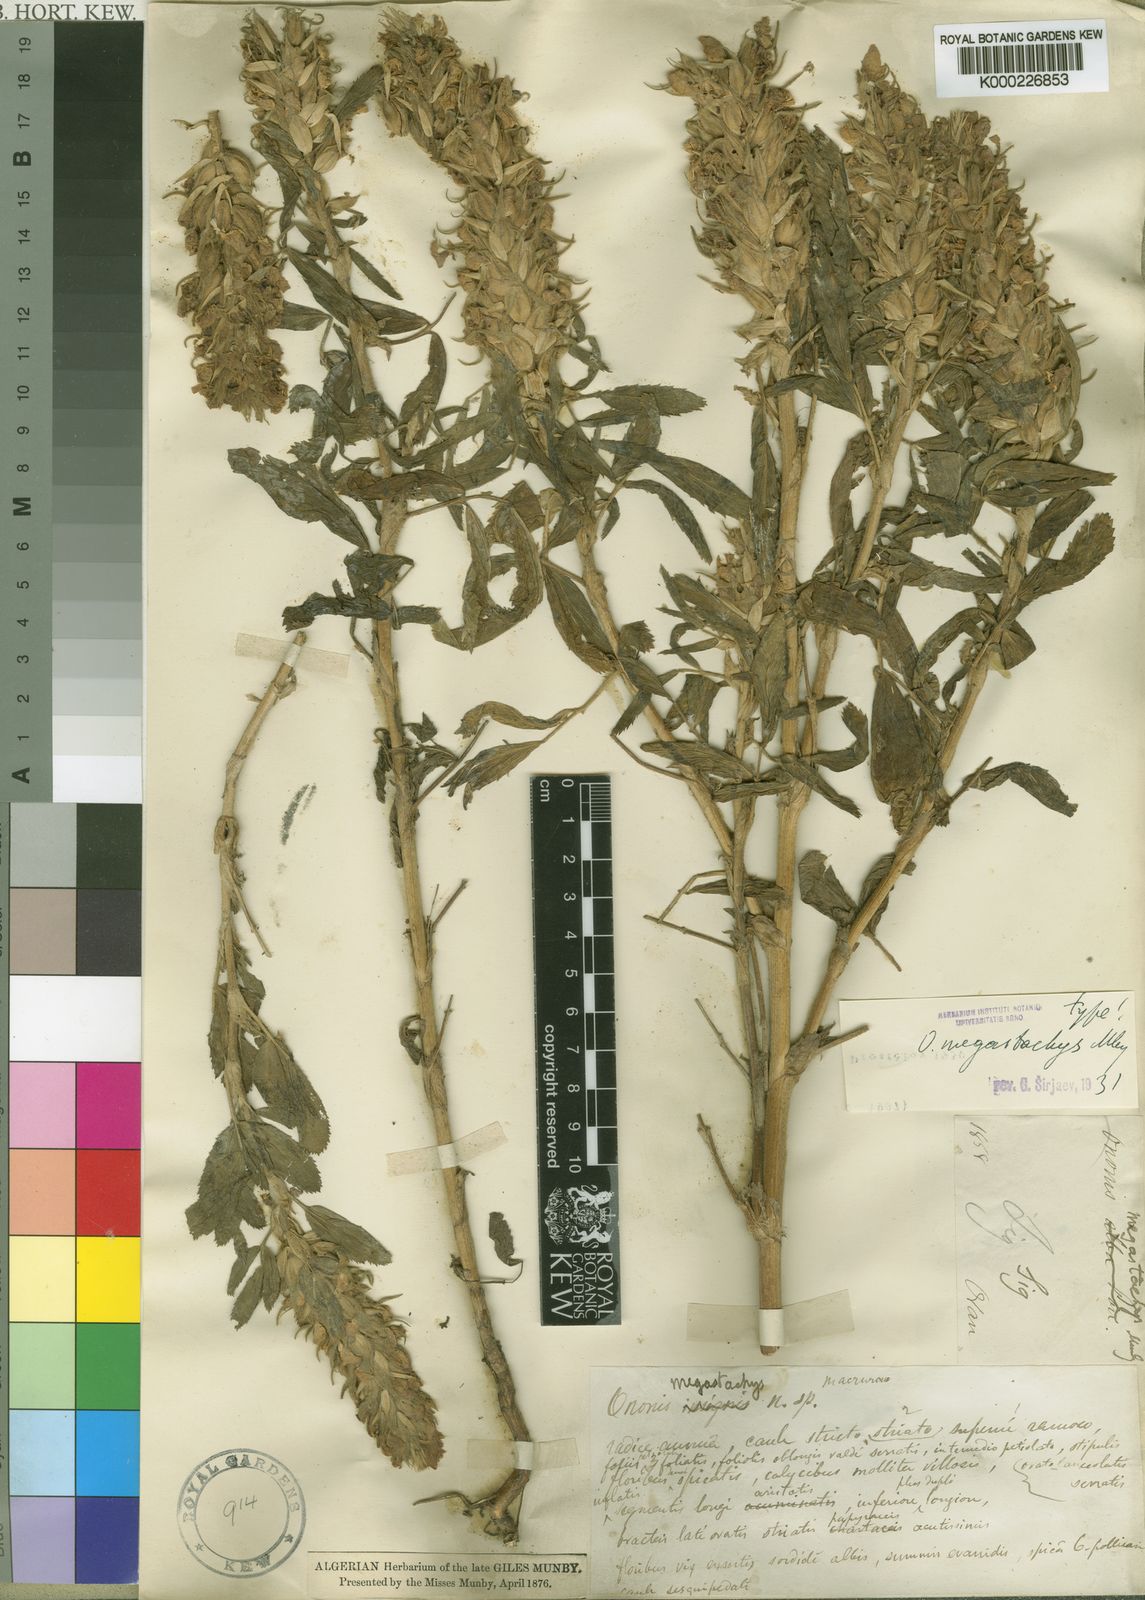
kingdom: Plantae
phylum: Tracheophyta
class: Magnoliopsida
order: Fabales
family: Fabaceae
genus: Ononis
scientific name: Ononis
